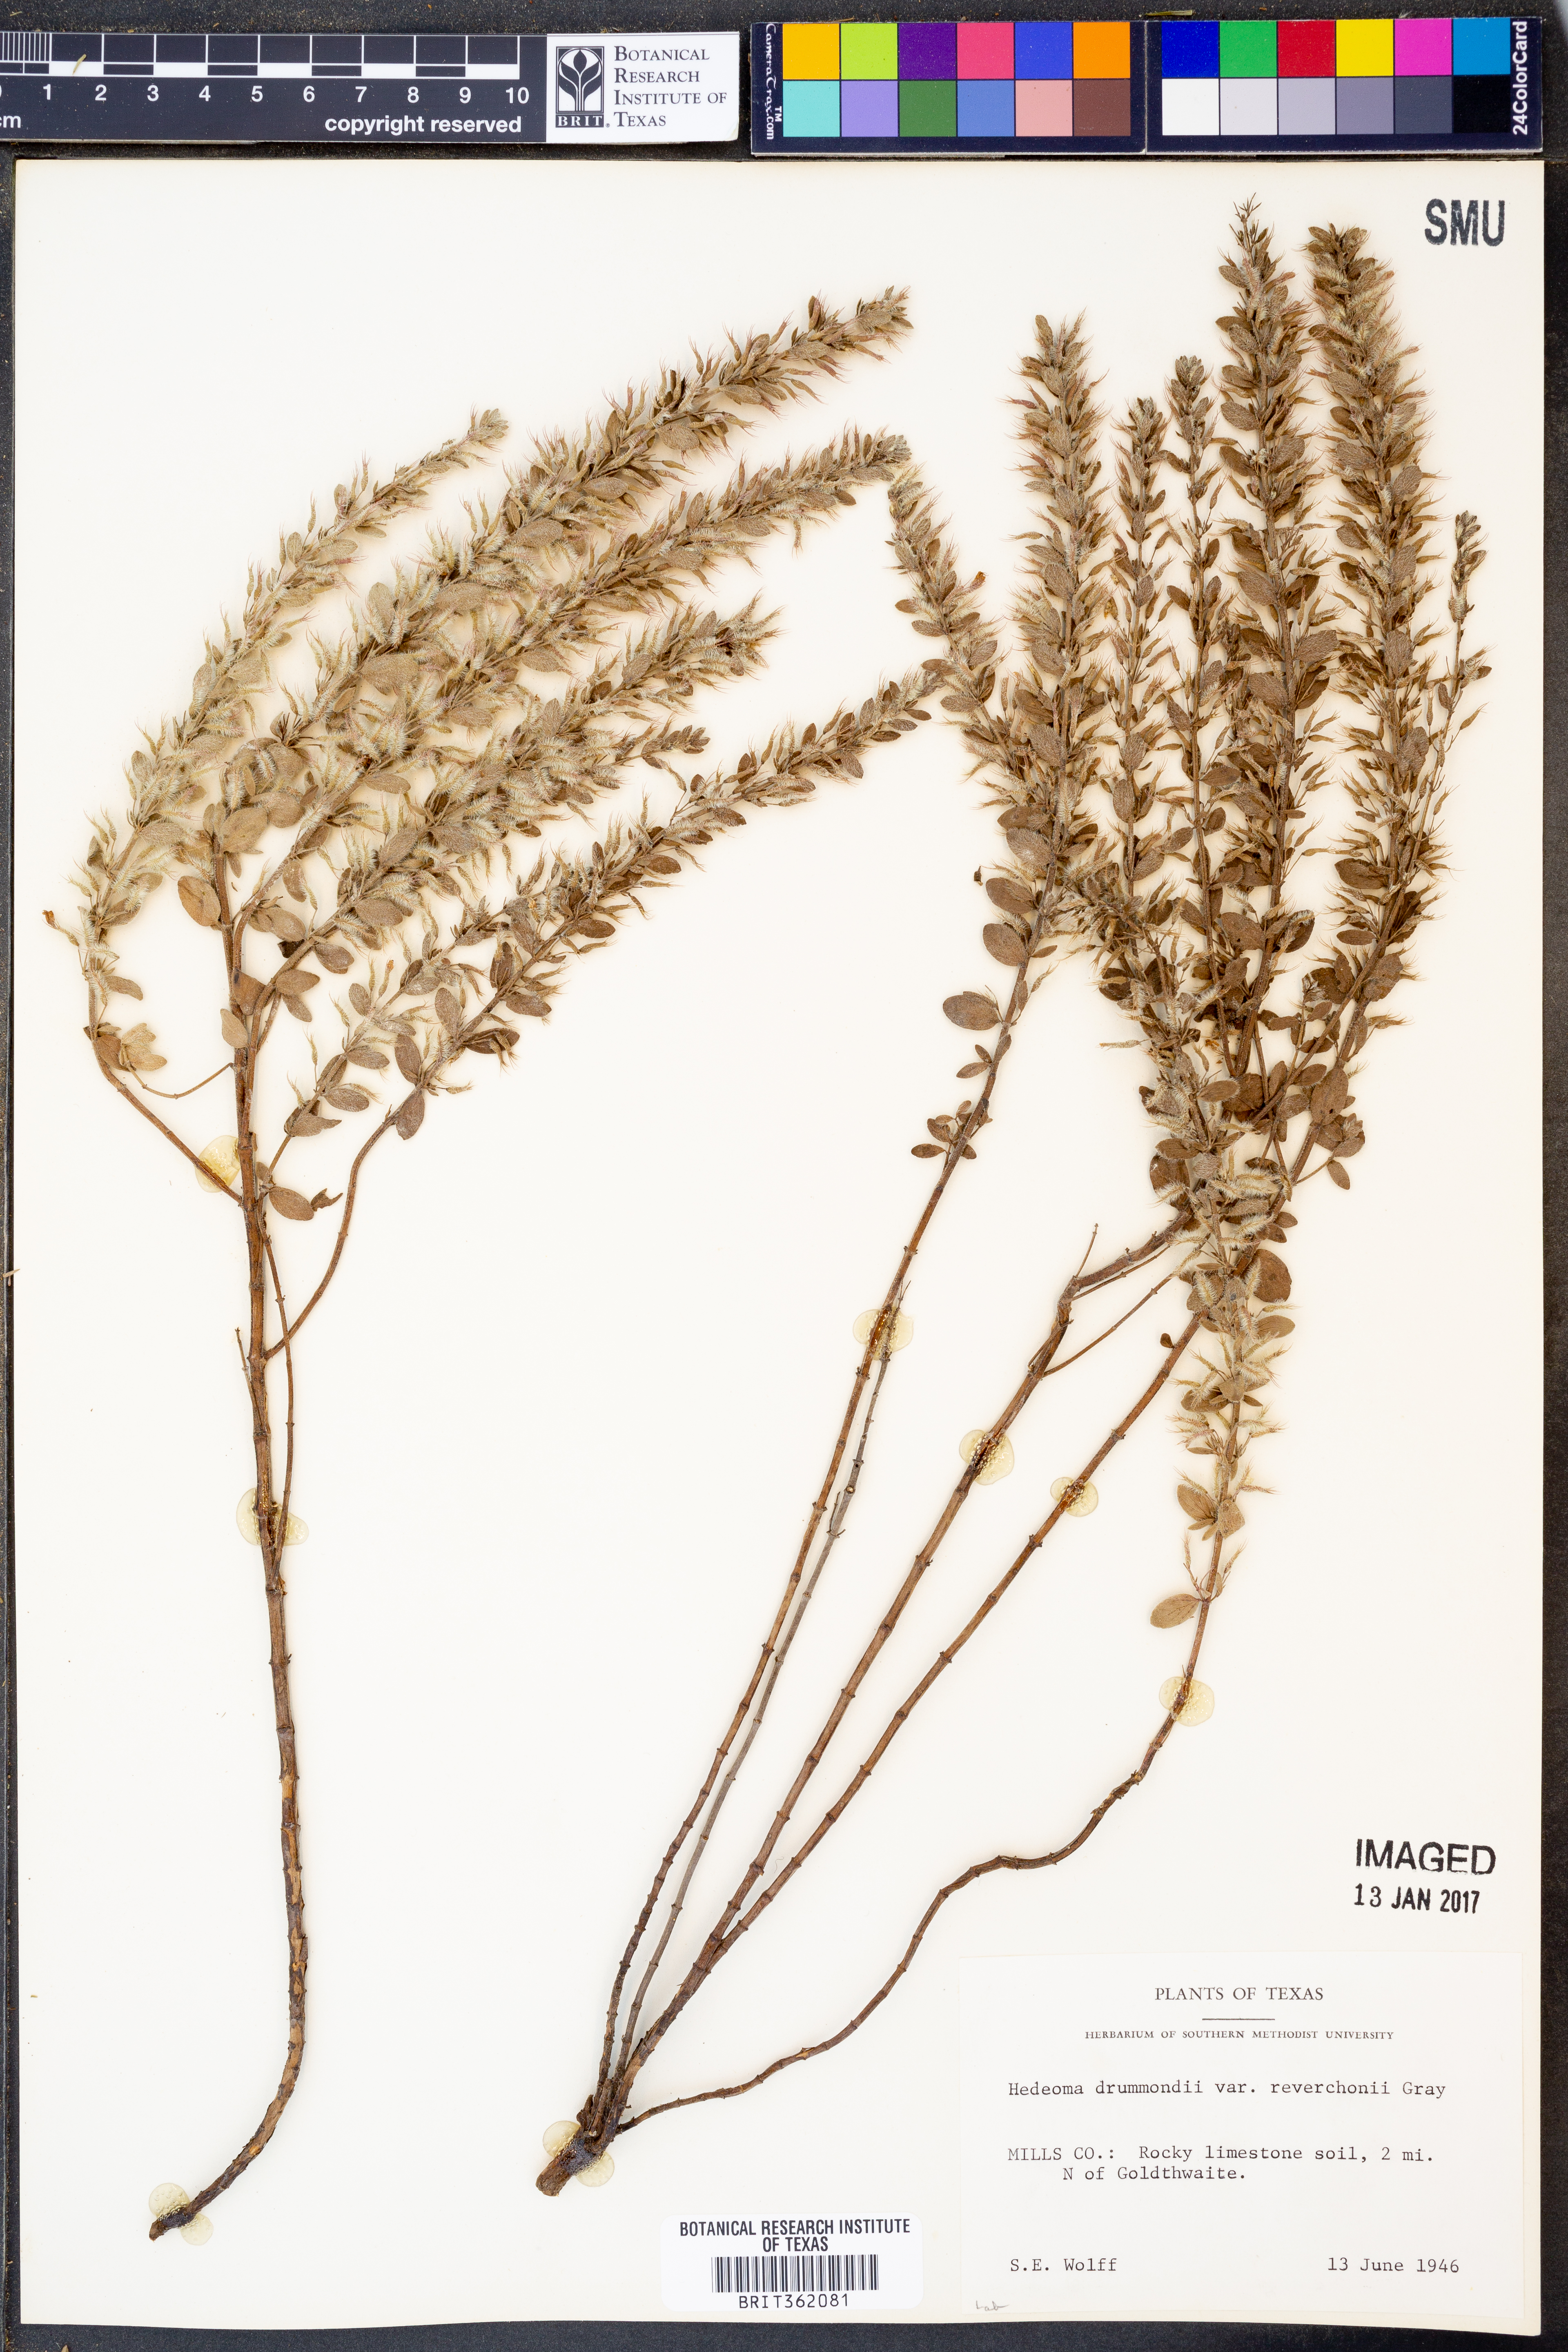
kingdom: Plantae
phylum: Tracheophyta
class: Magnoliopsida
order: Lamiales
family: Lamiaceae
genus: Hedeoma
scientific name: Hedeoma reverchonii
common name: Reverchon's false penny-royal
